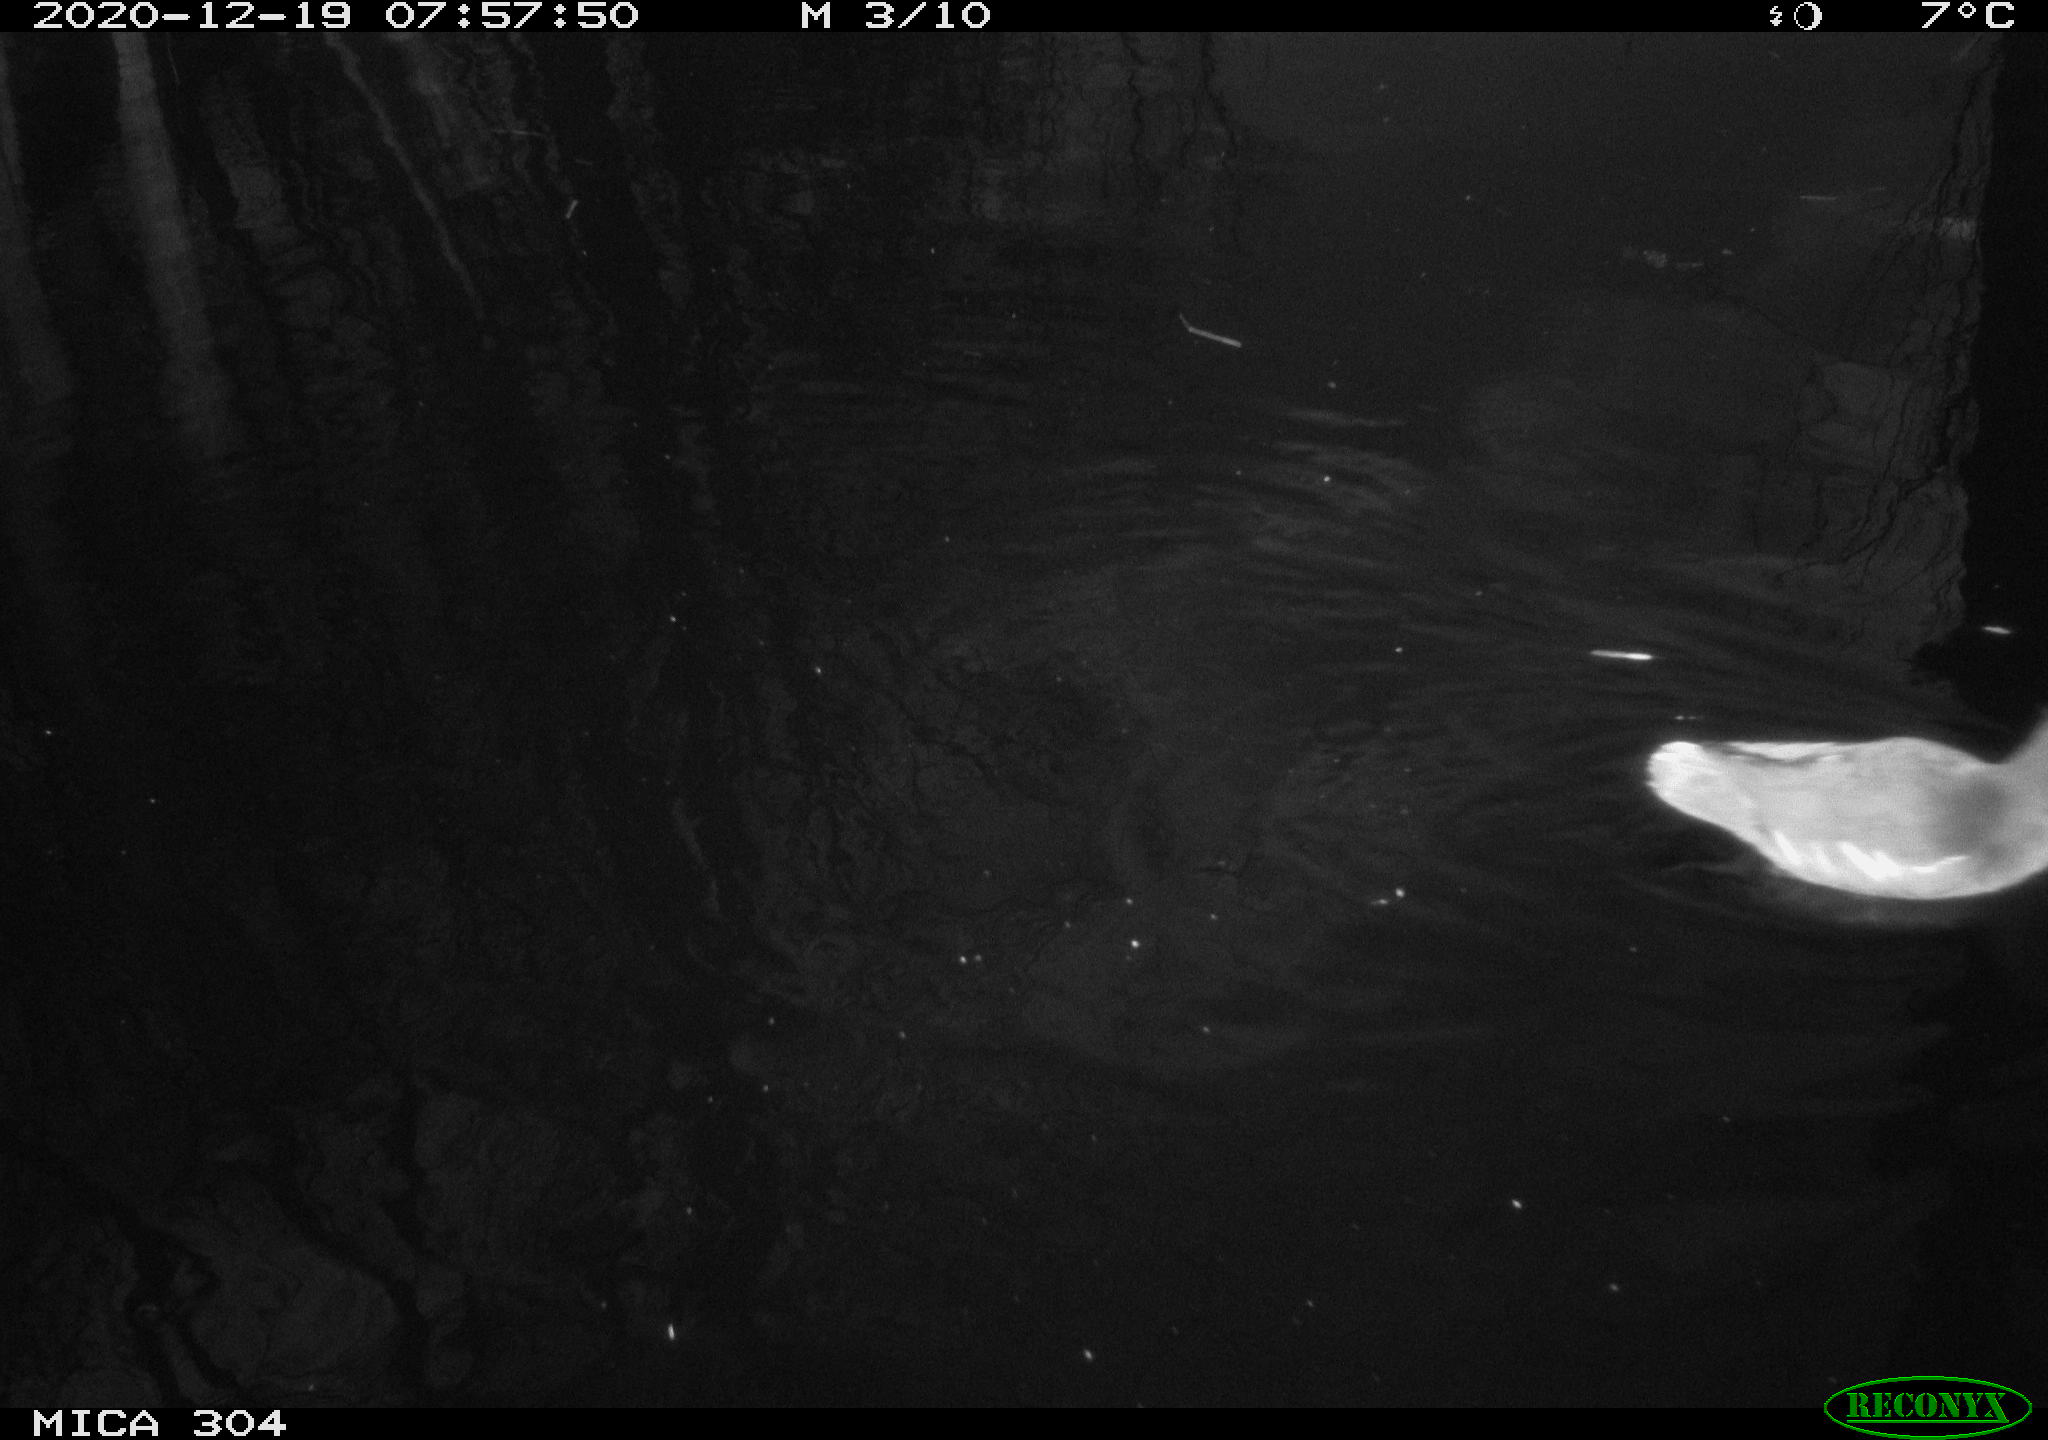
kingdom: Animalia
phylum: Chordata
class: Aves
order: Gruiformes
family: Rallidae
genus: Gallinula
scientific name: Gallinula chloropus
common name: Common moorhen
